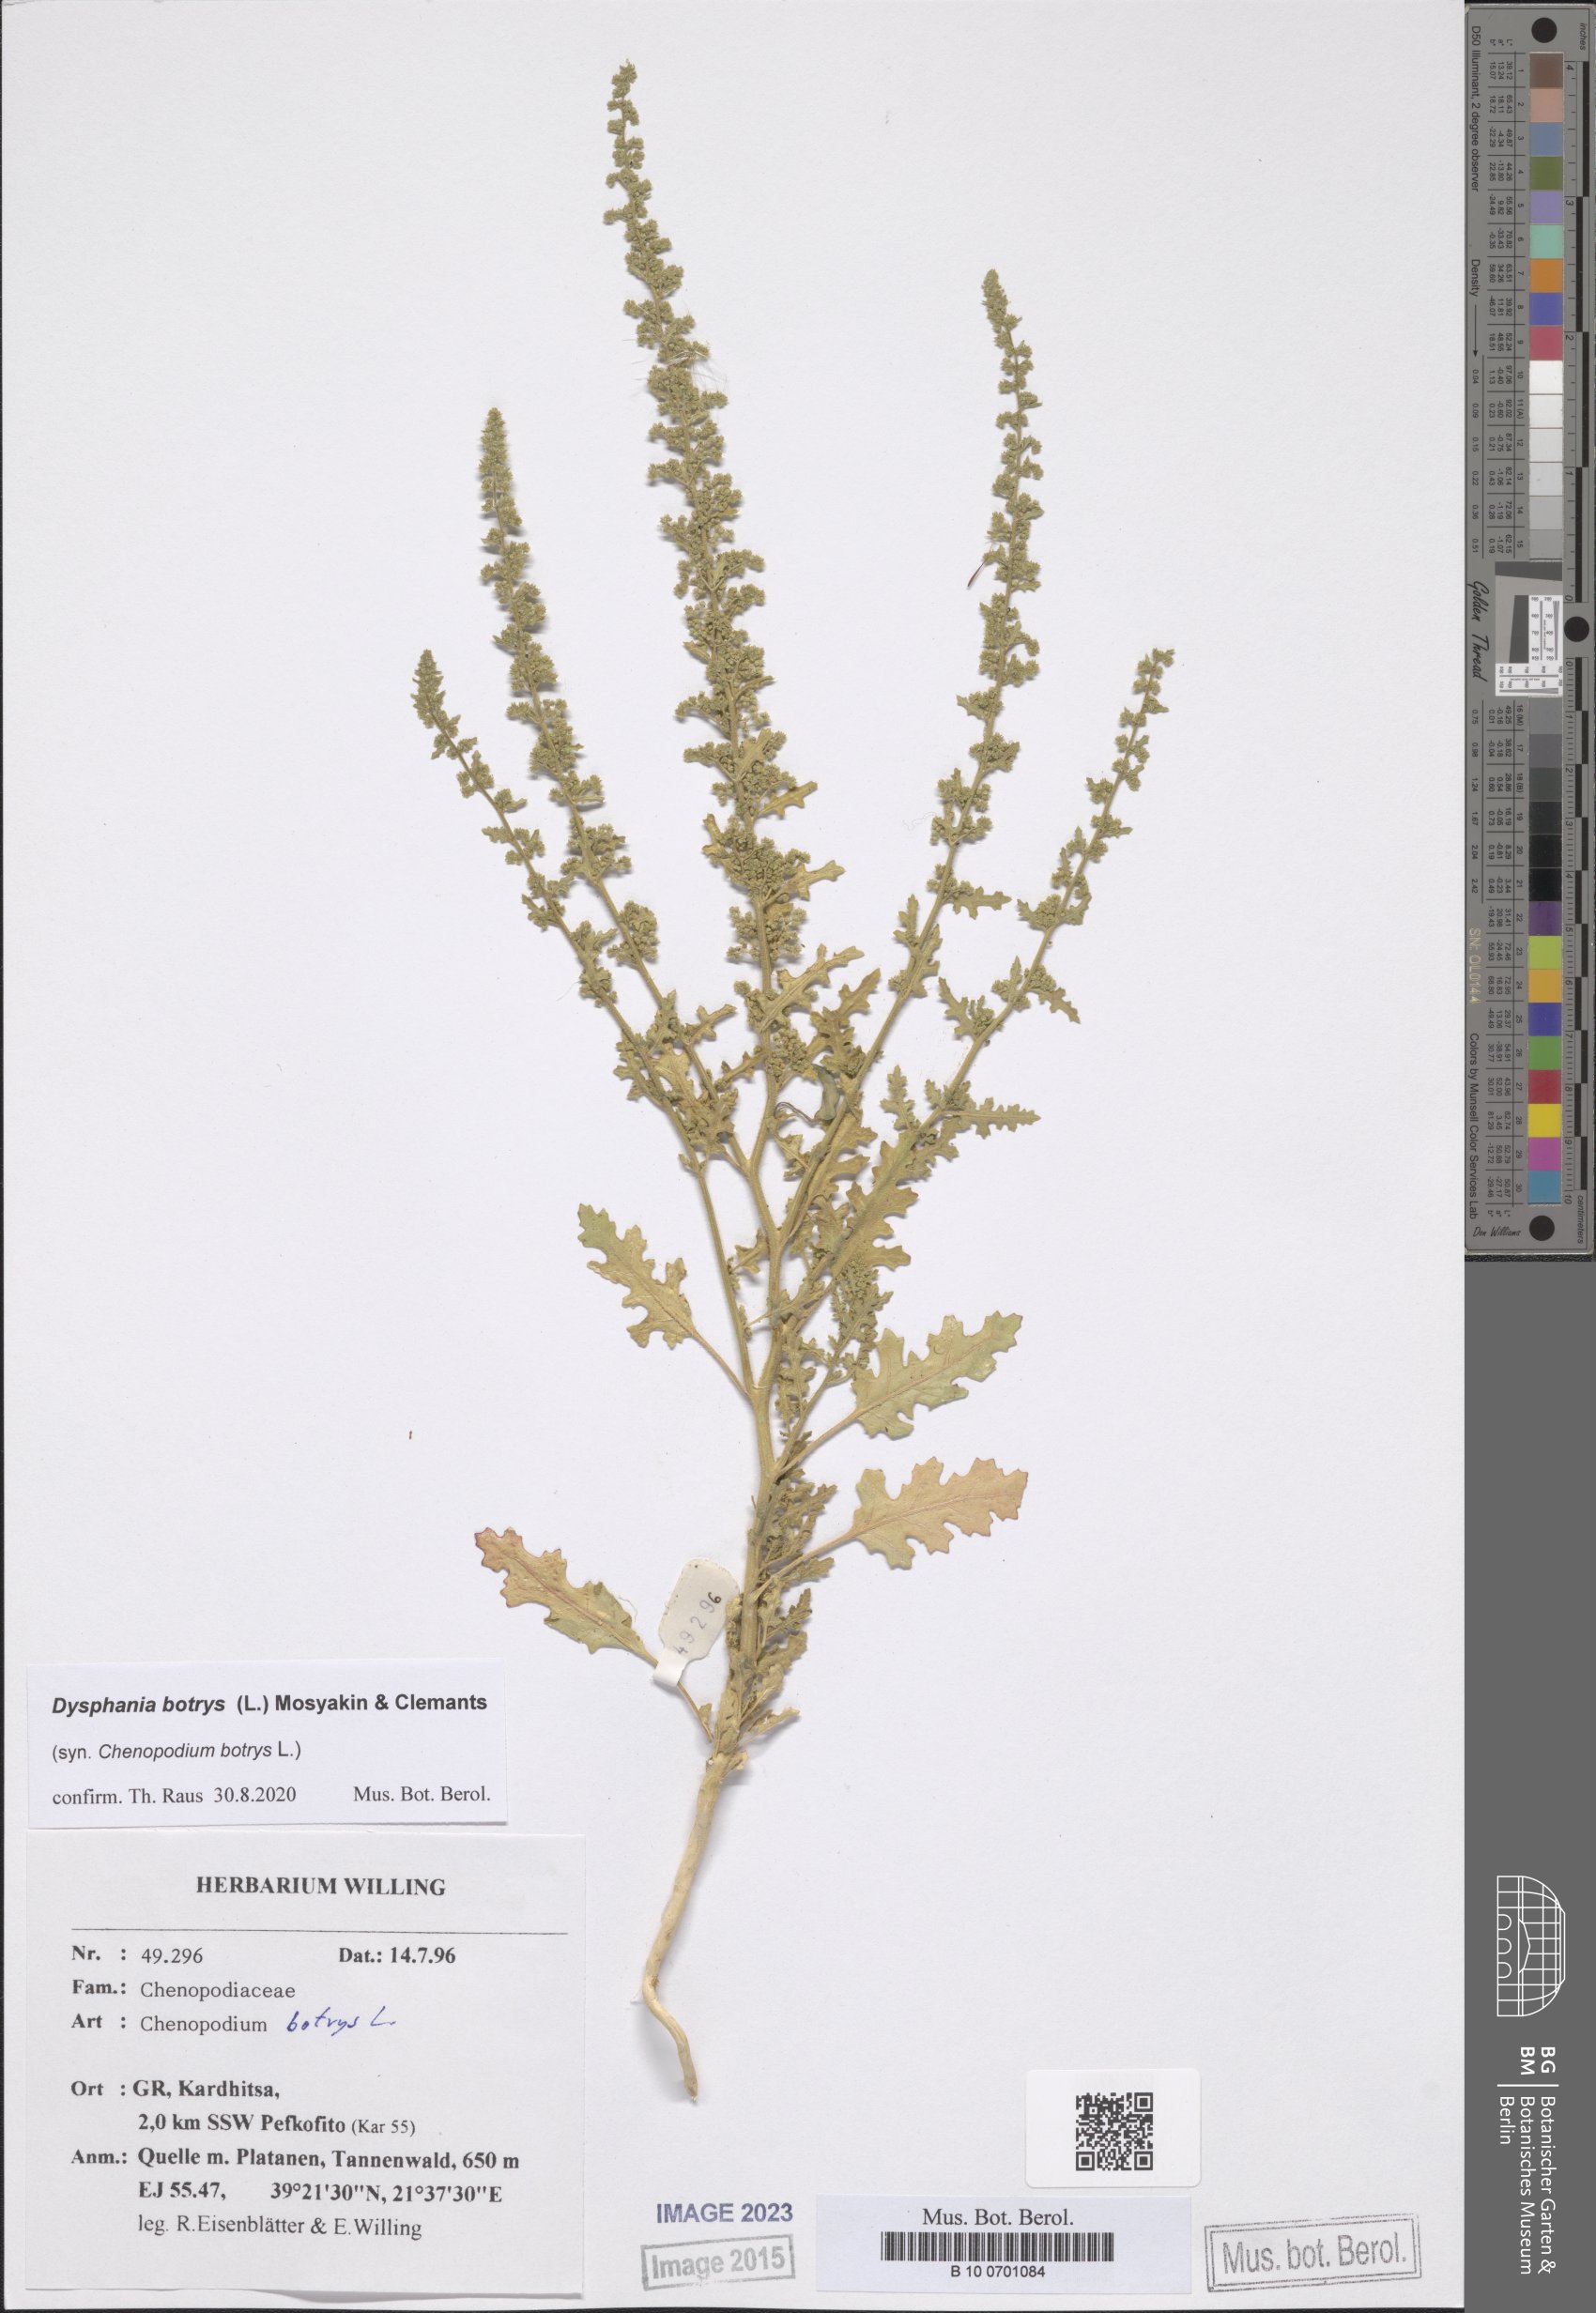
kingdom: Plantae
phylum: Tracheophyta
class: Magnoliopsida
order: Caryophyllales
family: Amaranthaceae
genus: Dysphania
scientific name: Dysphania botrys
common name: Feather-geranium
